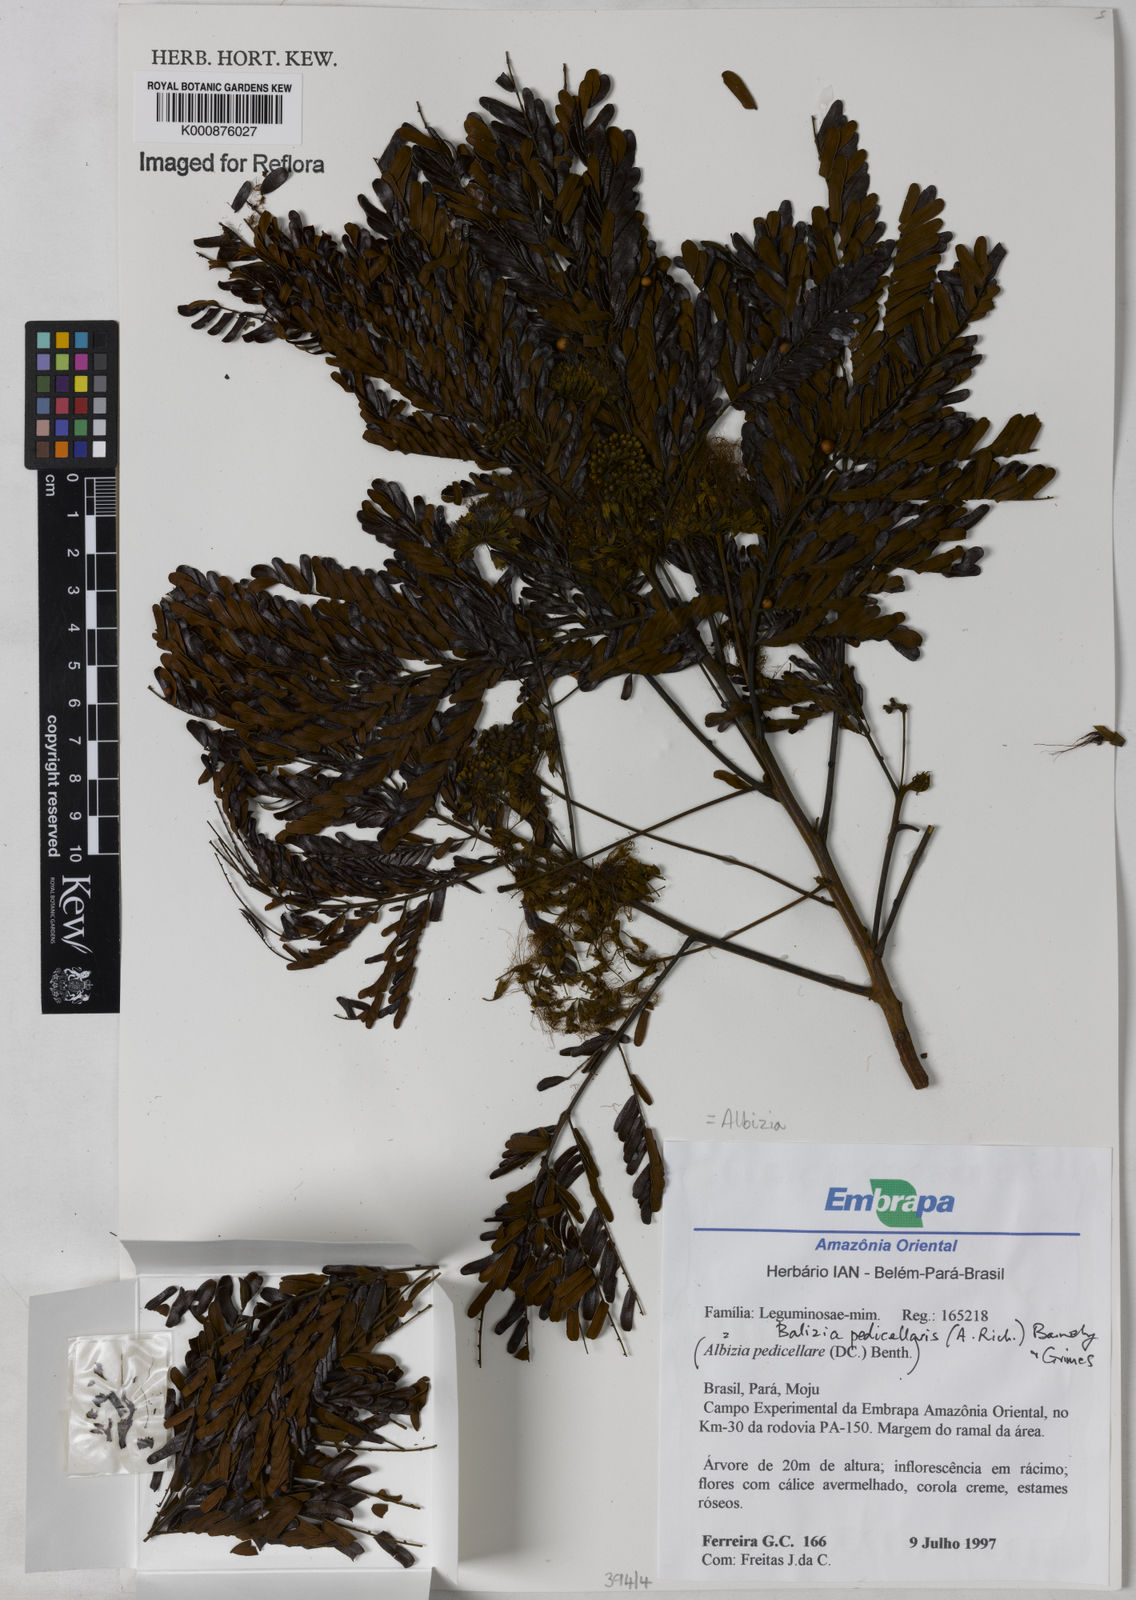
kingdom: Plantae
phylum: Tracheophyta
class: Magnoliopsida
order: Fabales
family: Fabaceae
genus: Balizia
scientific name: Balizia pedicellaris
